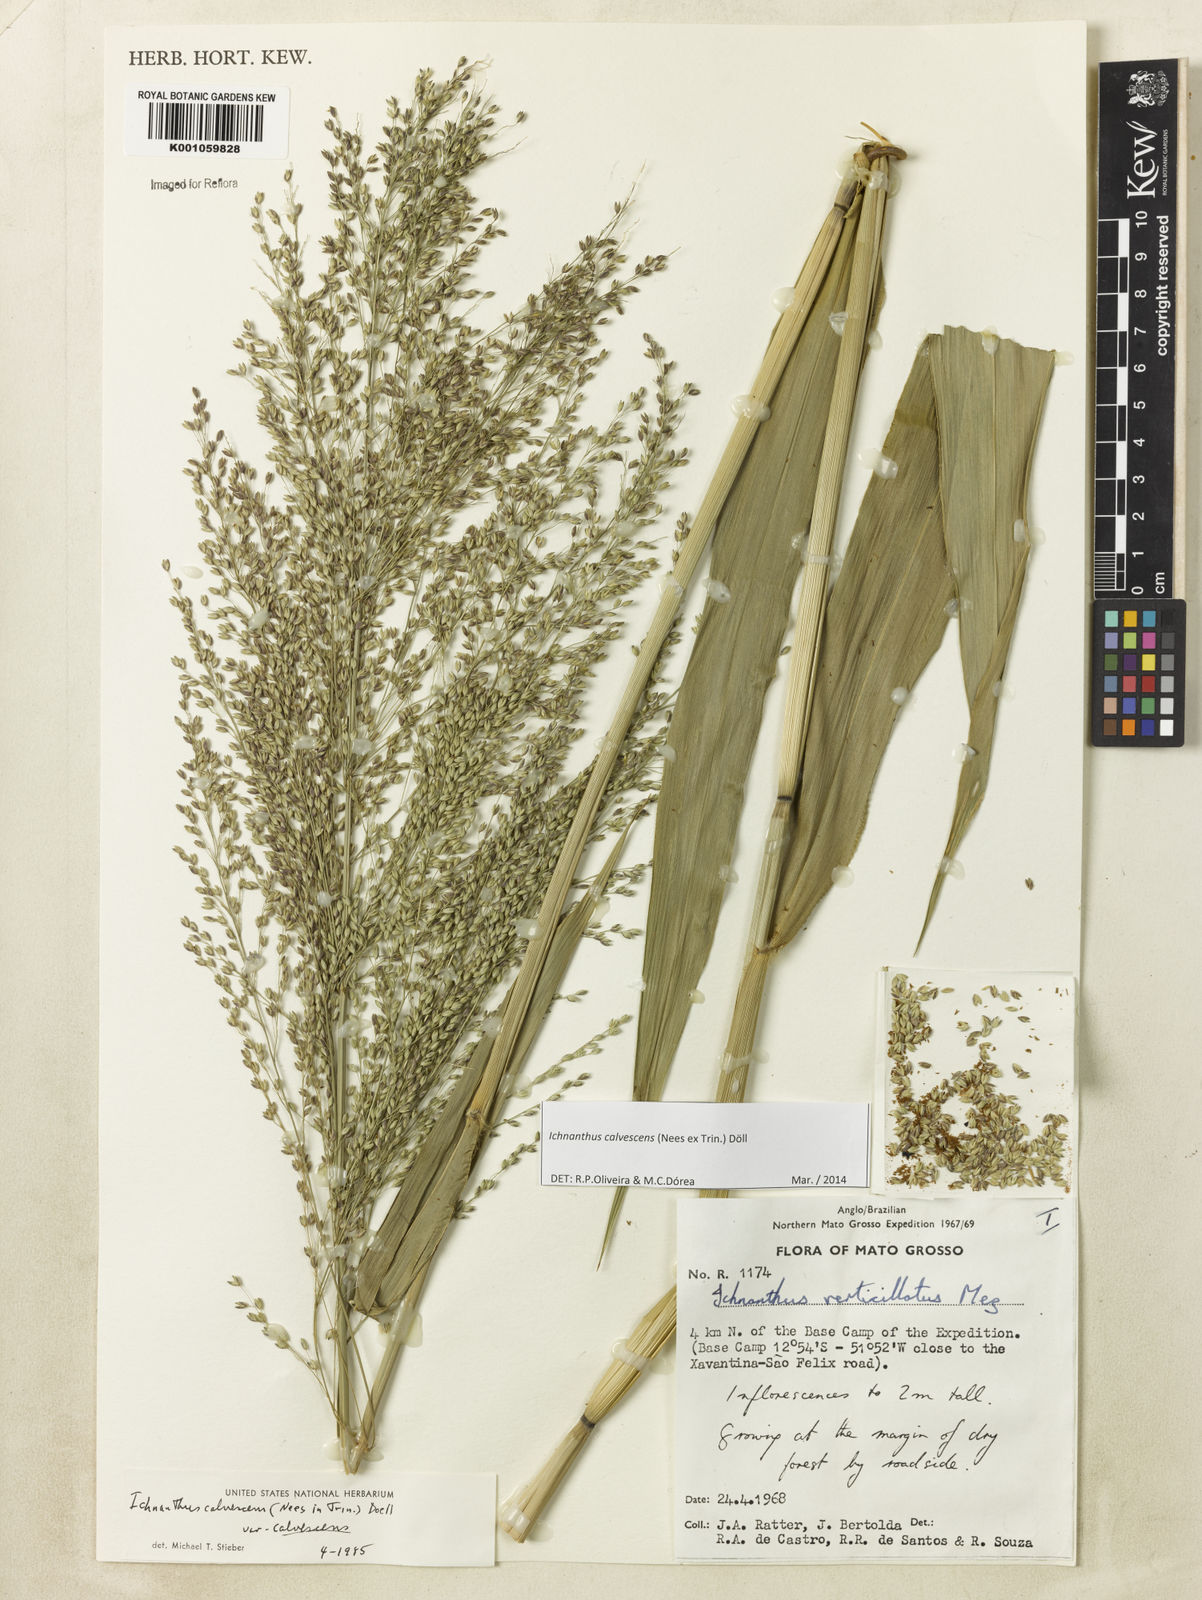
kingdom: Plantae
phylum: Tracheophyta
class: Liliopsida
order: Poales
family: Poaceae
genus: Ichnanthus
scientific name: Ichnanthus
